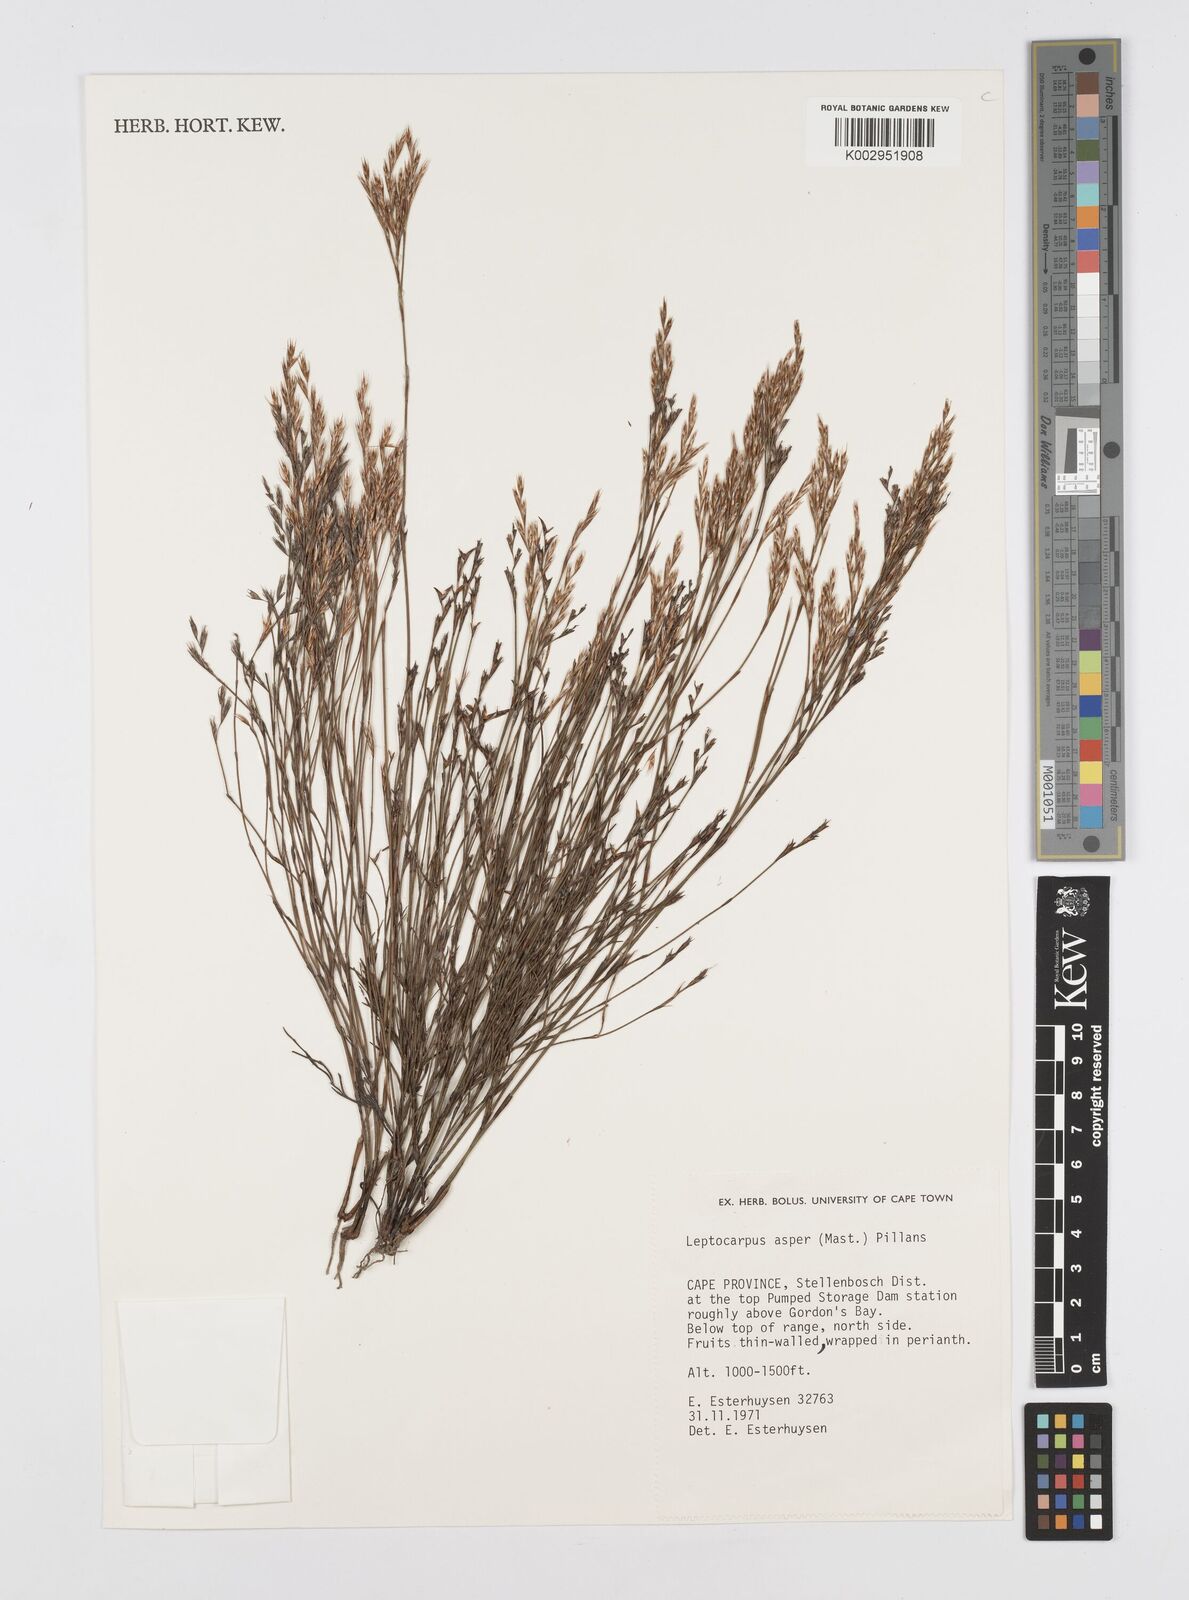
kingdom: Plantae
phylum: Tracheophyta
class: Liliopsida
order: Poales
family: Restionaceae
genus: Restio
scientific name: Restio asperus
